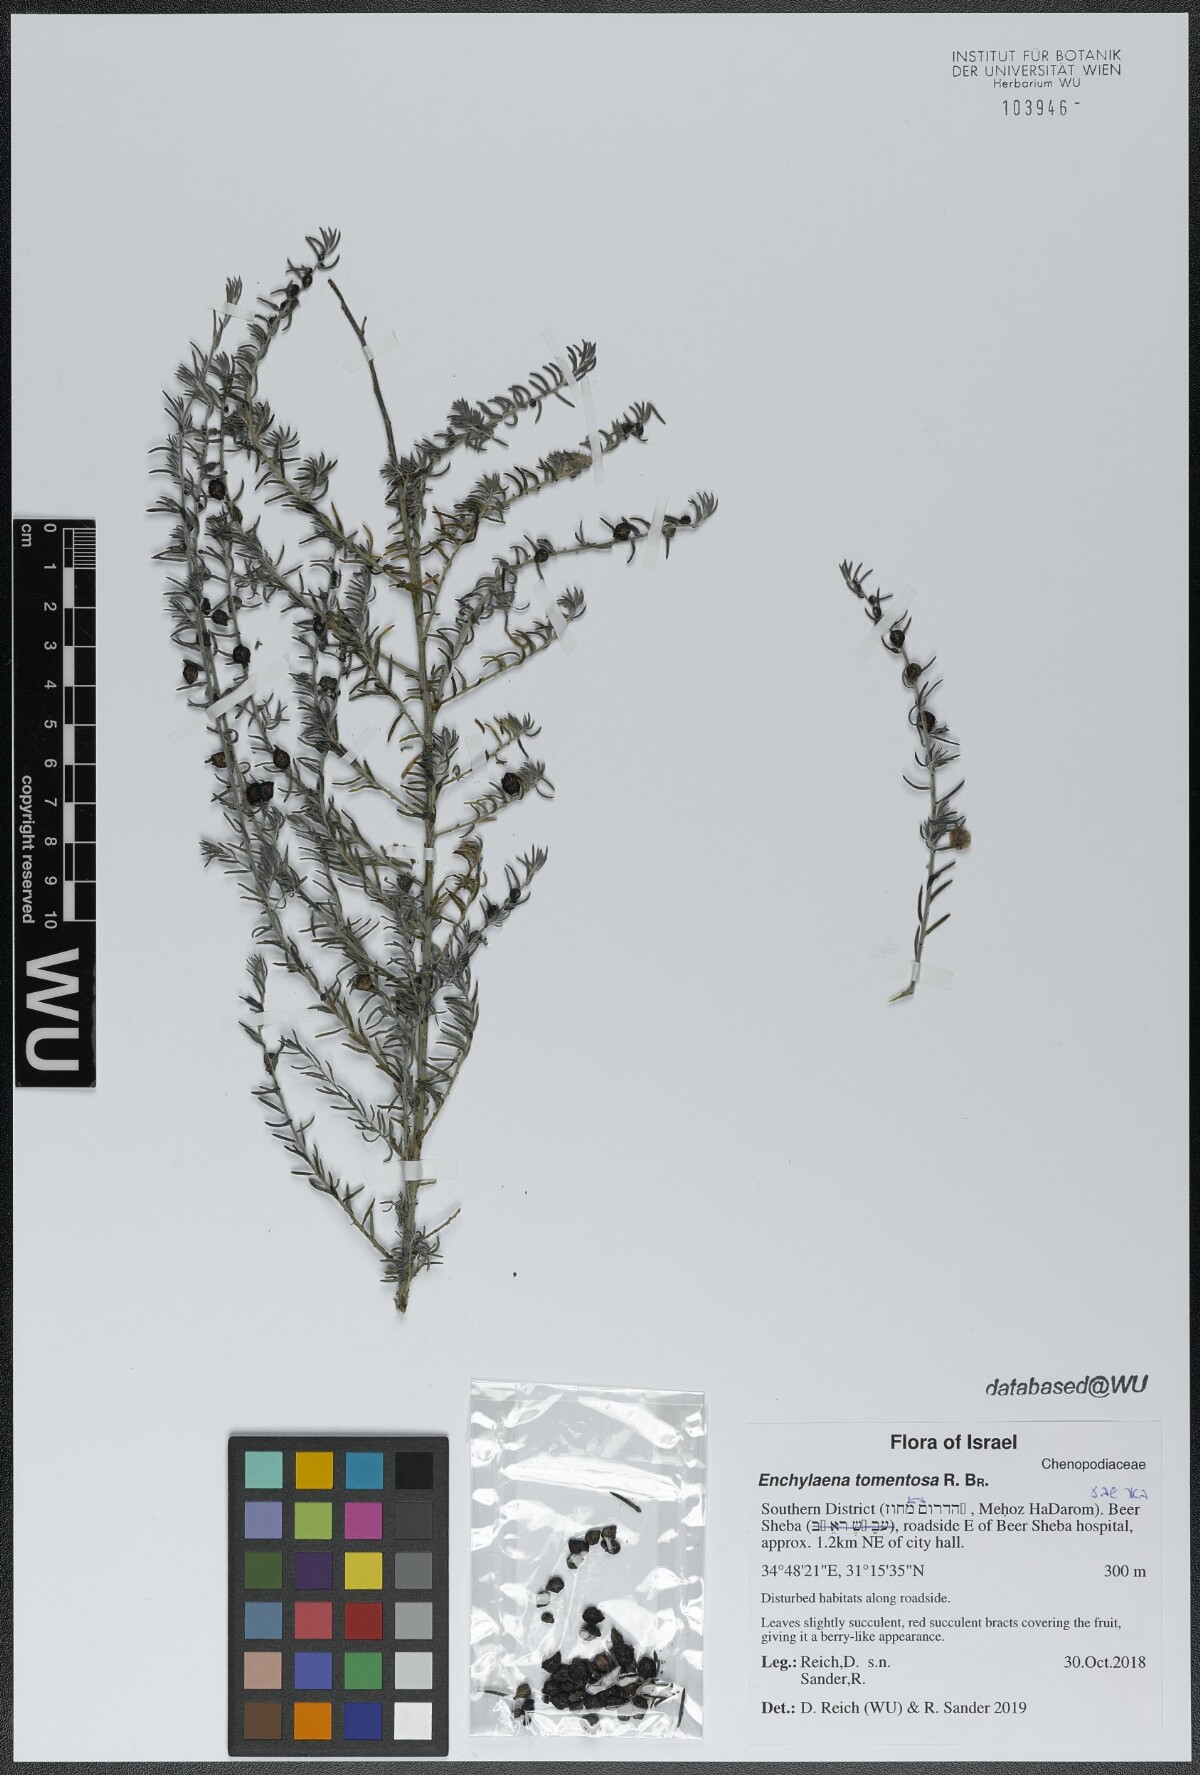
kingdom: Plantae
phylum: Tracheophyta
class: Magnoliopsida
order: Caryophyllales
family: Amaranthaceae
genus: Enchylaena
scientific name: Enchylaena tomentosa
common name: Ruby saltbush
